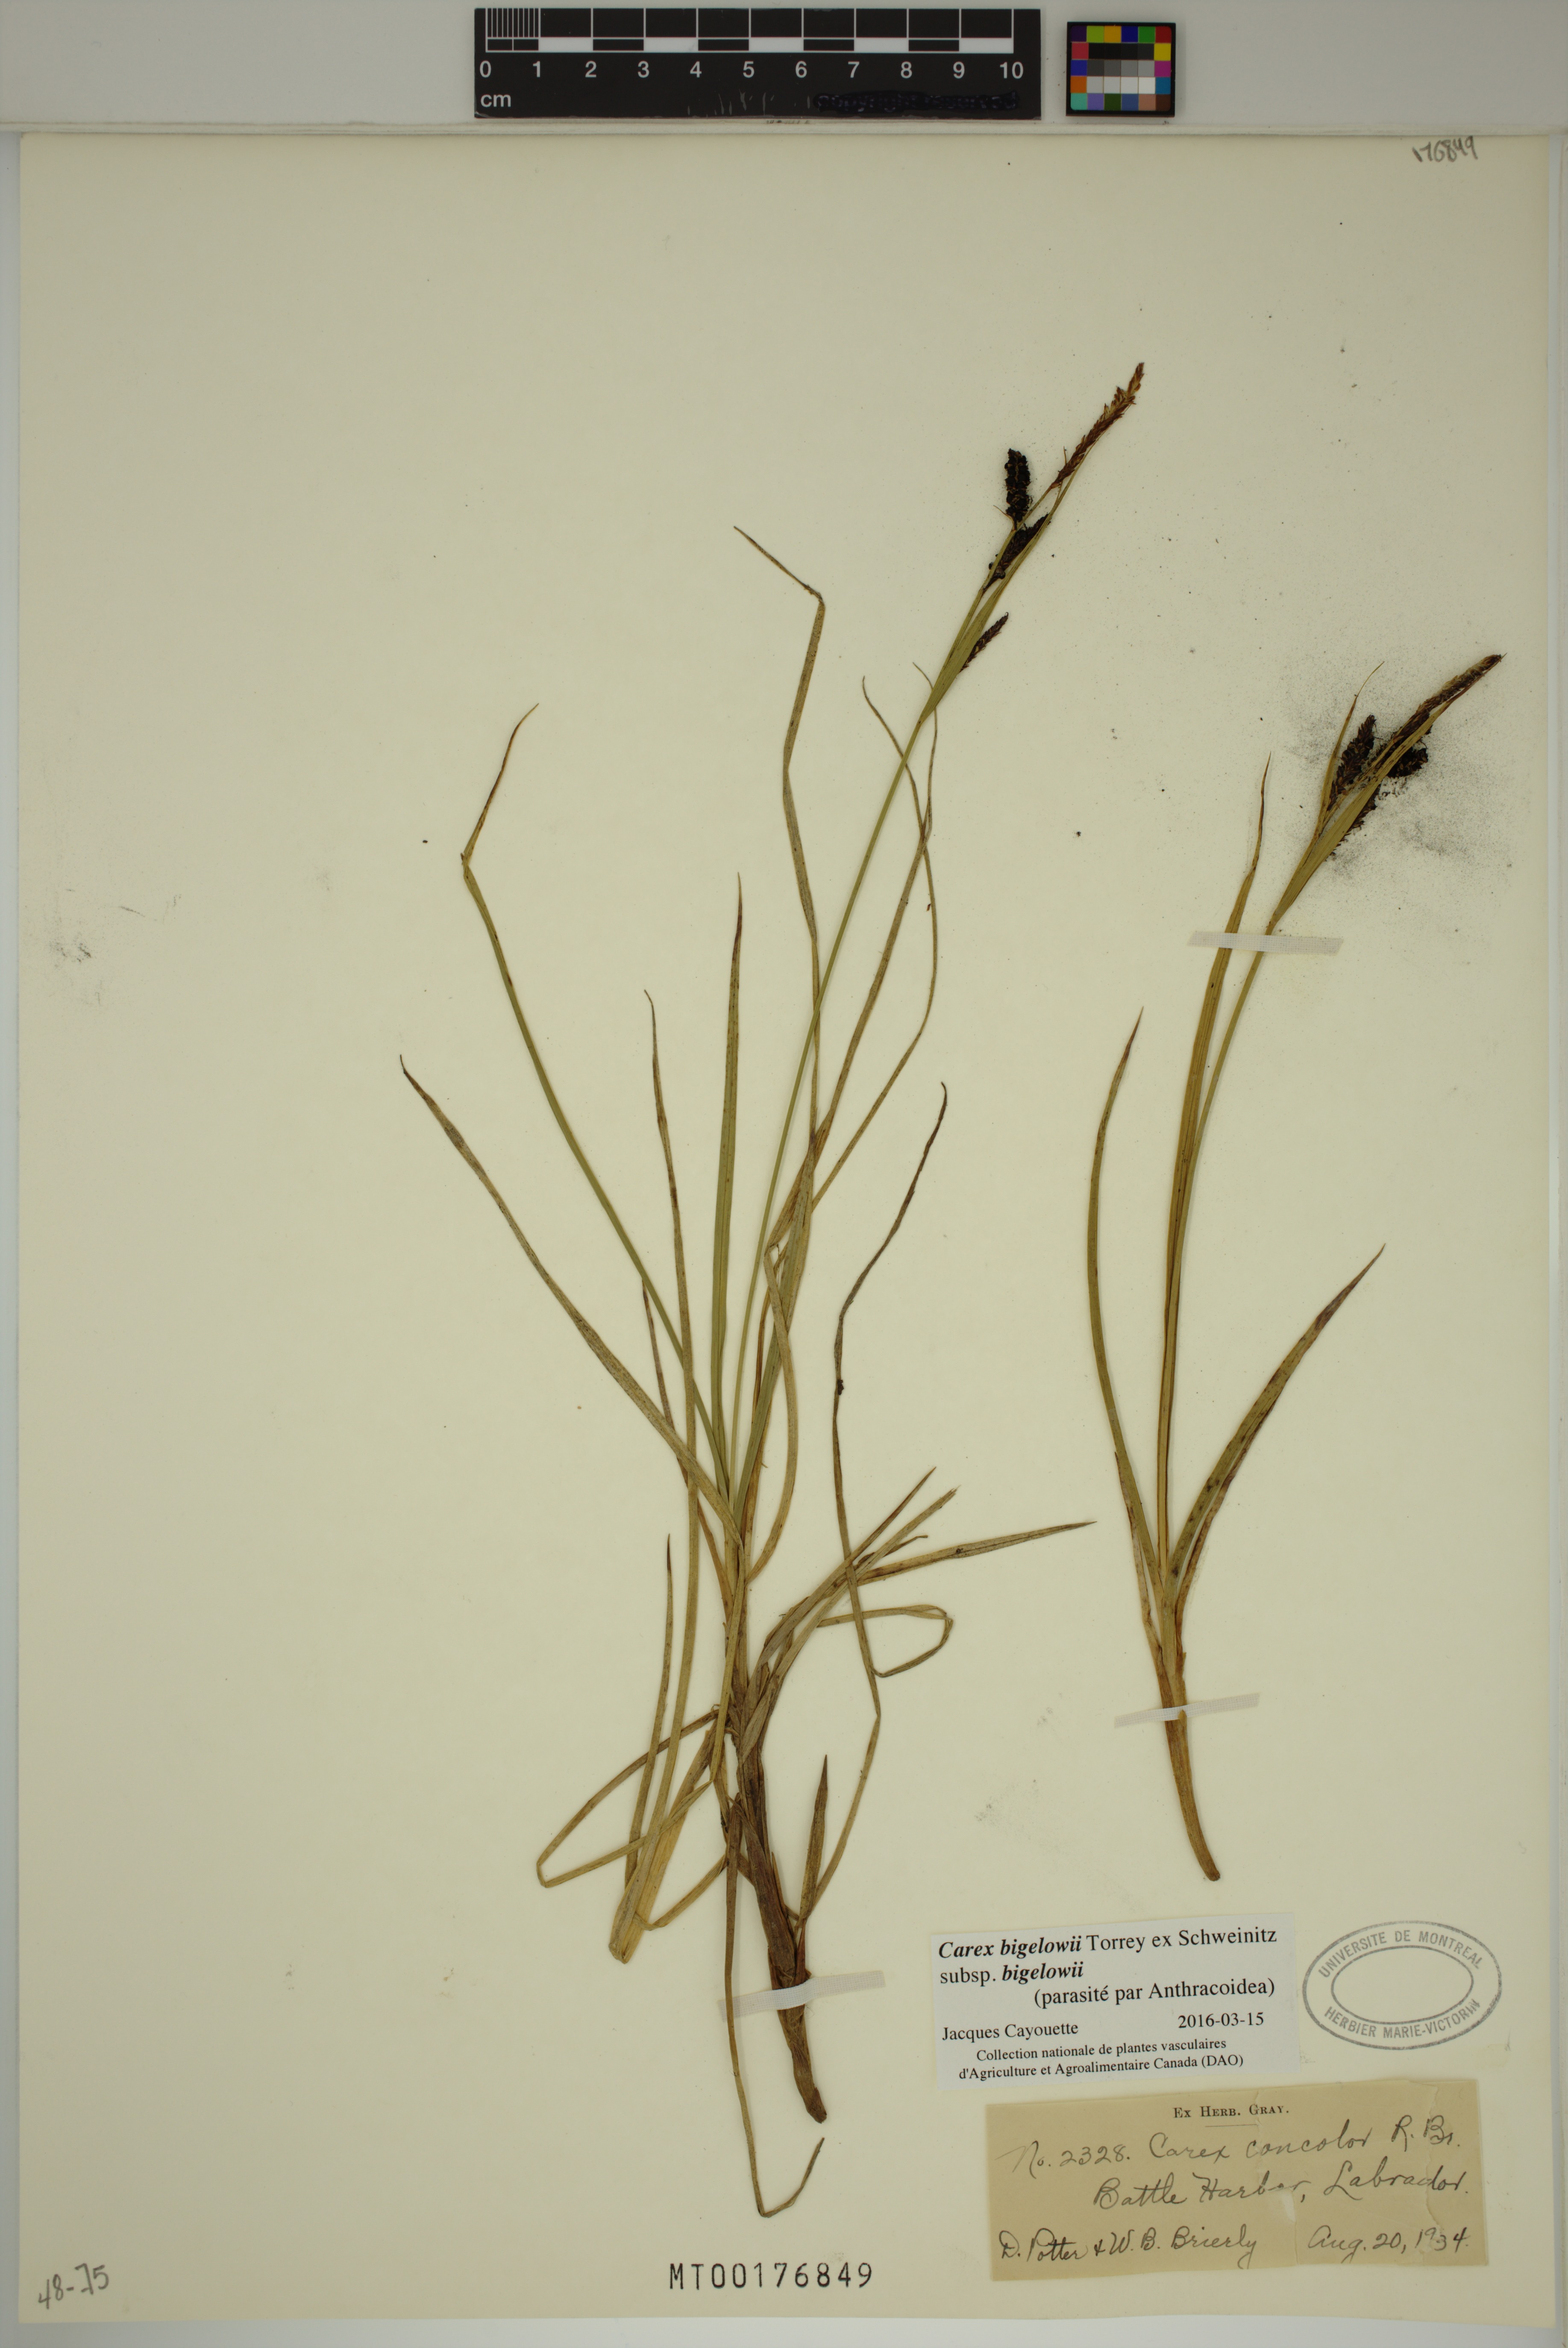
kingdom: Plantae
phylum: Tracheophyta
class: Liliopsida
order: Poales
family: Cyperaceae
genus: Carex
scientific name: Carex bigelowii
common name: Stiff sedge
